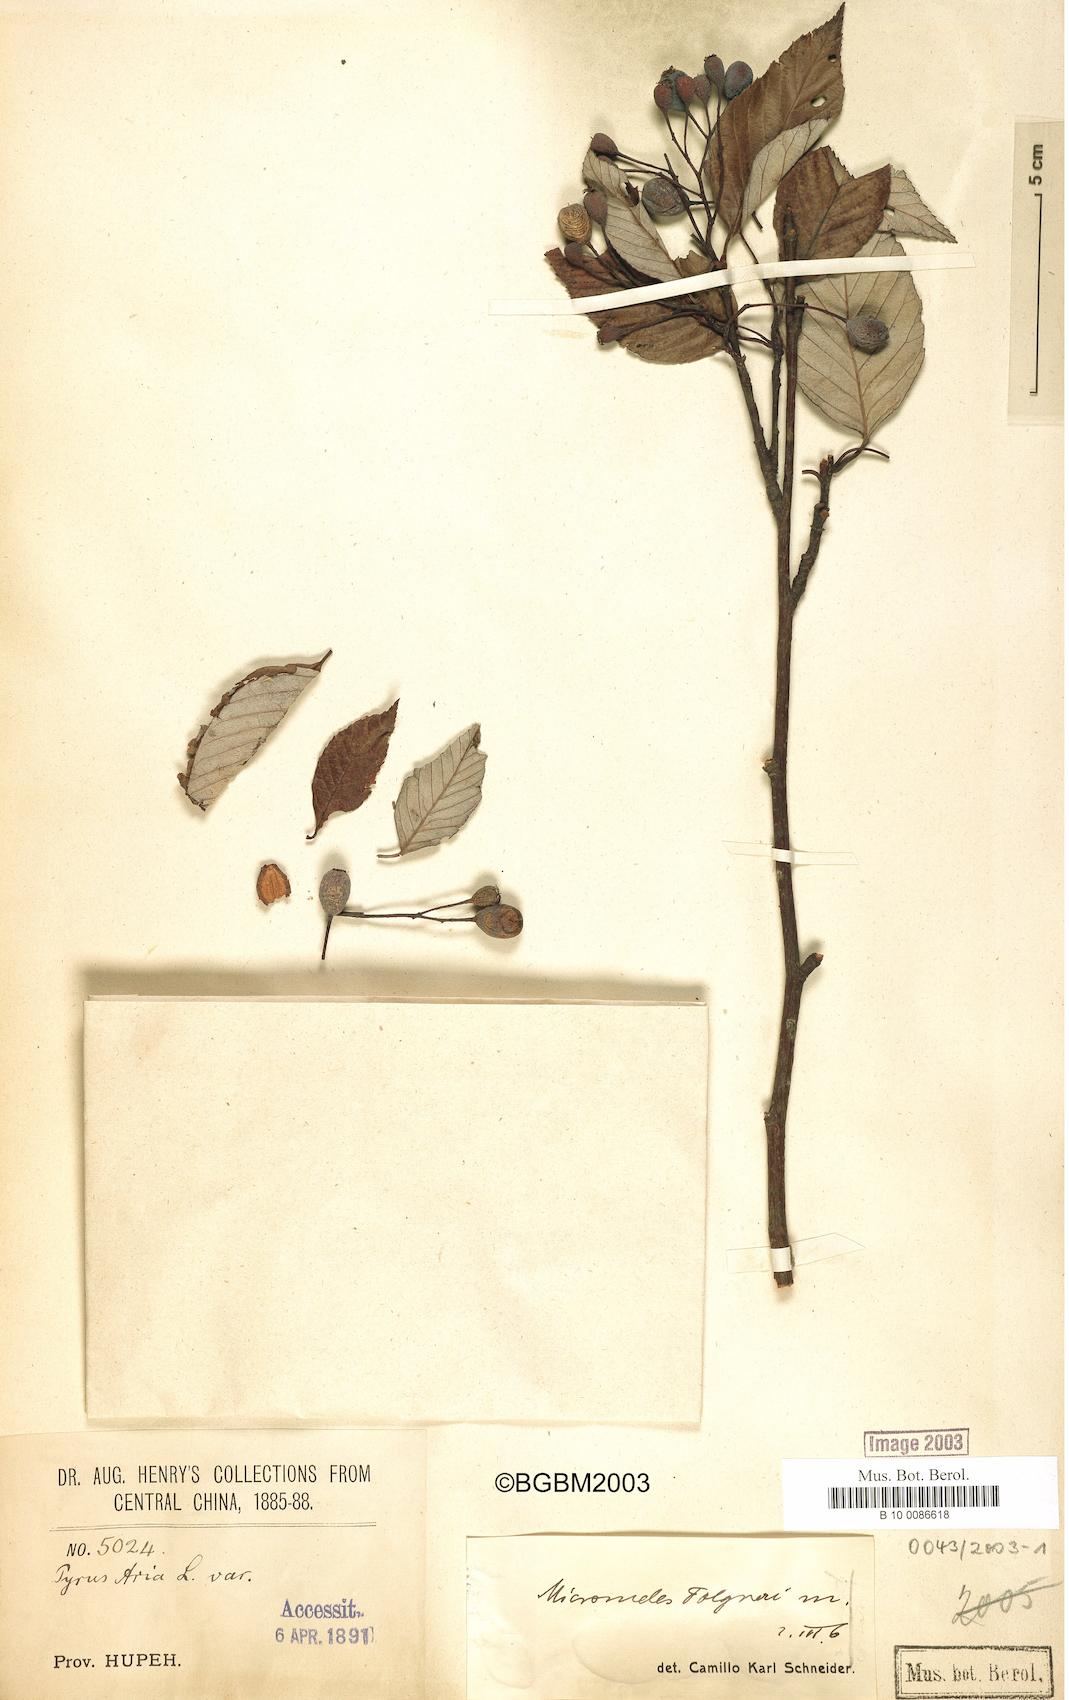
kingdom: Plantae
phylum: Tracheophyta
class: Magnoliopsida
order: Rosales
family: Rosaceae
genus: Sorbus
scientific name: Sorbus folgneri
